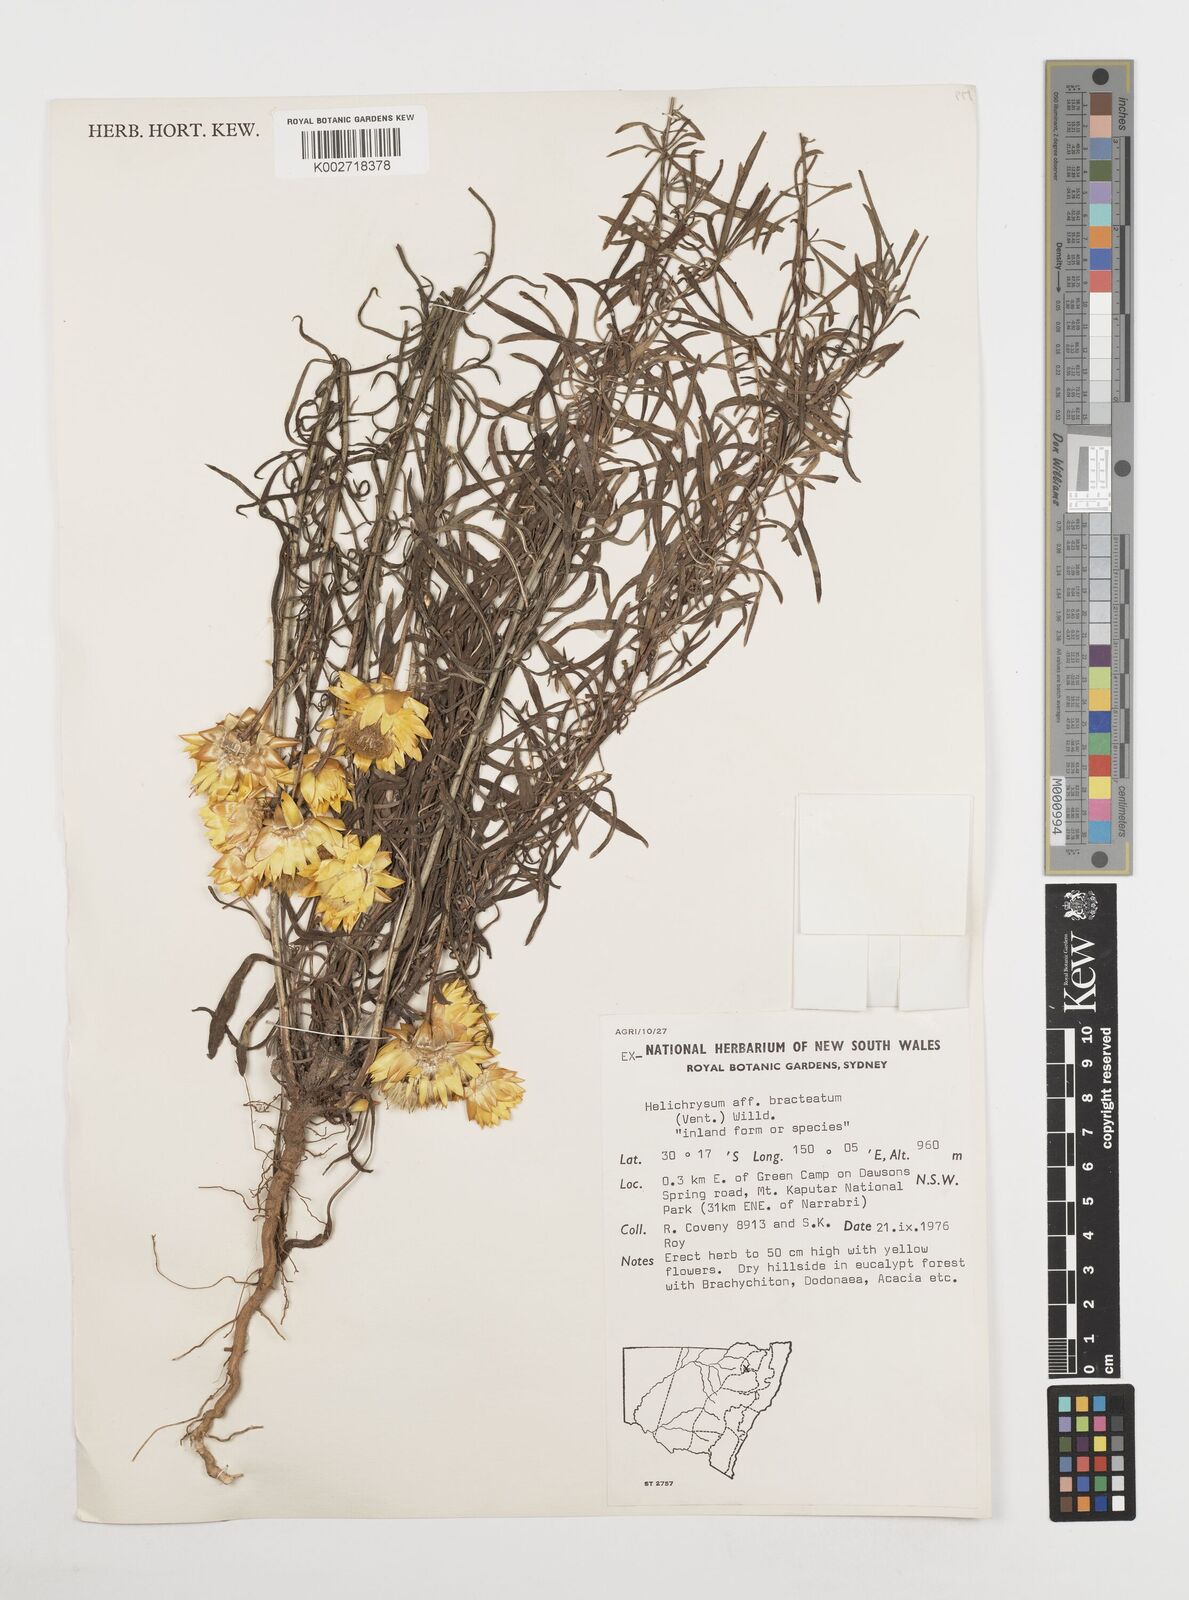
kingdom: Plantae
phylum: Tracheophyta
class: Magnoliopsida
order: Asterales
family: Asteraceae
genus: Xerochrysum
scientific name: Xerochrysum bracteatum
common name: Bracted strawflower
